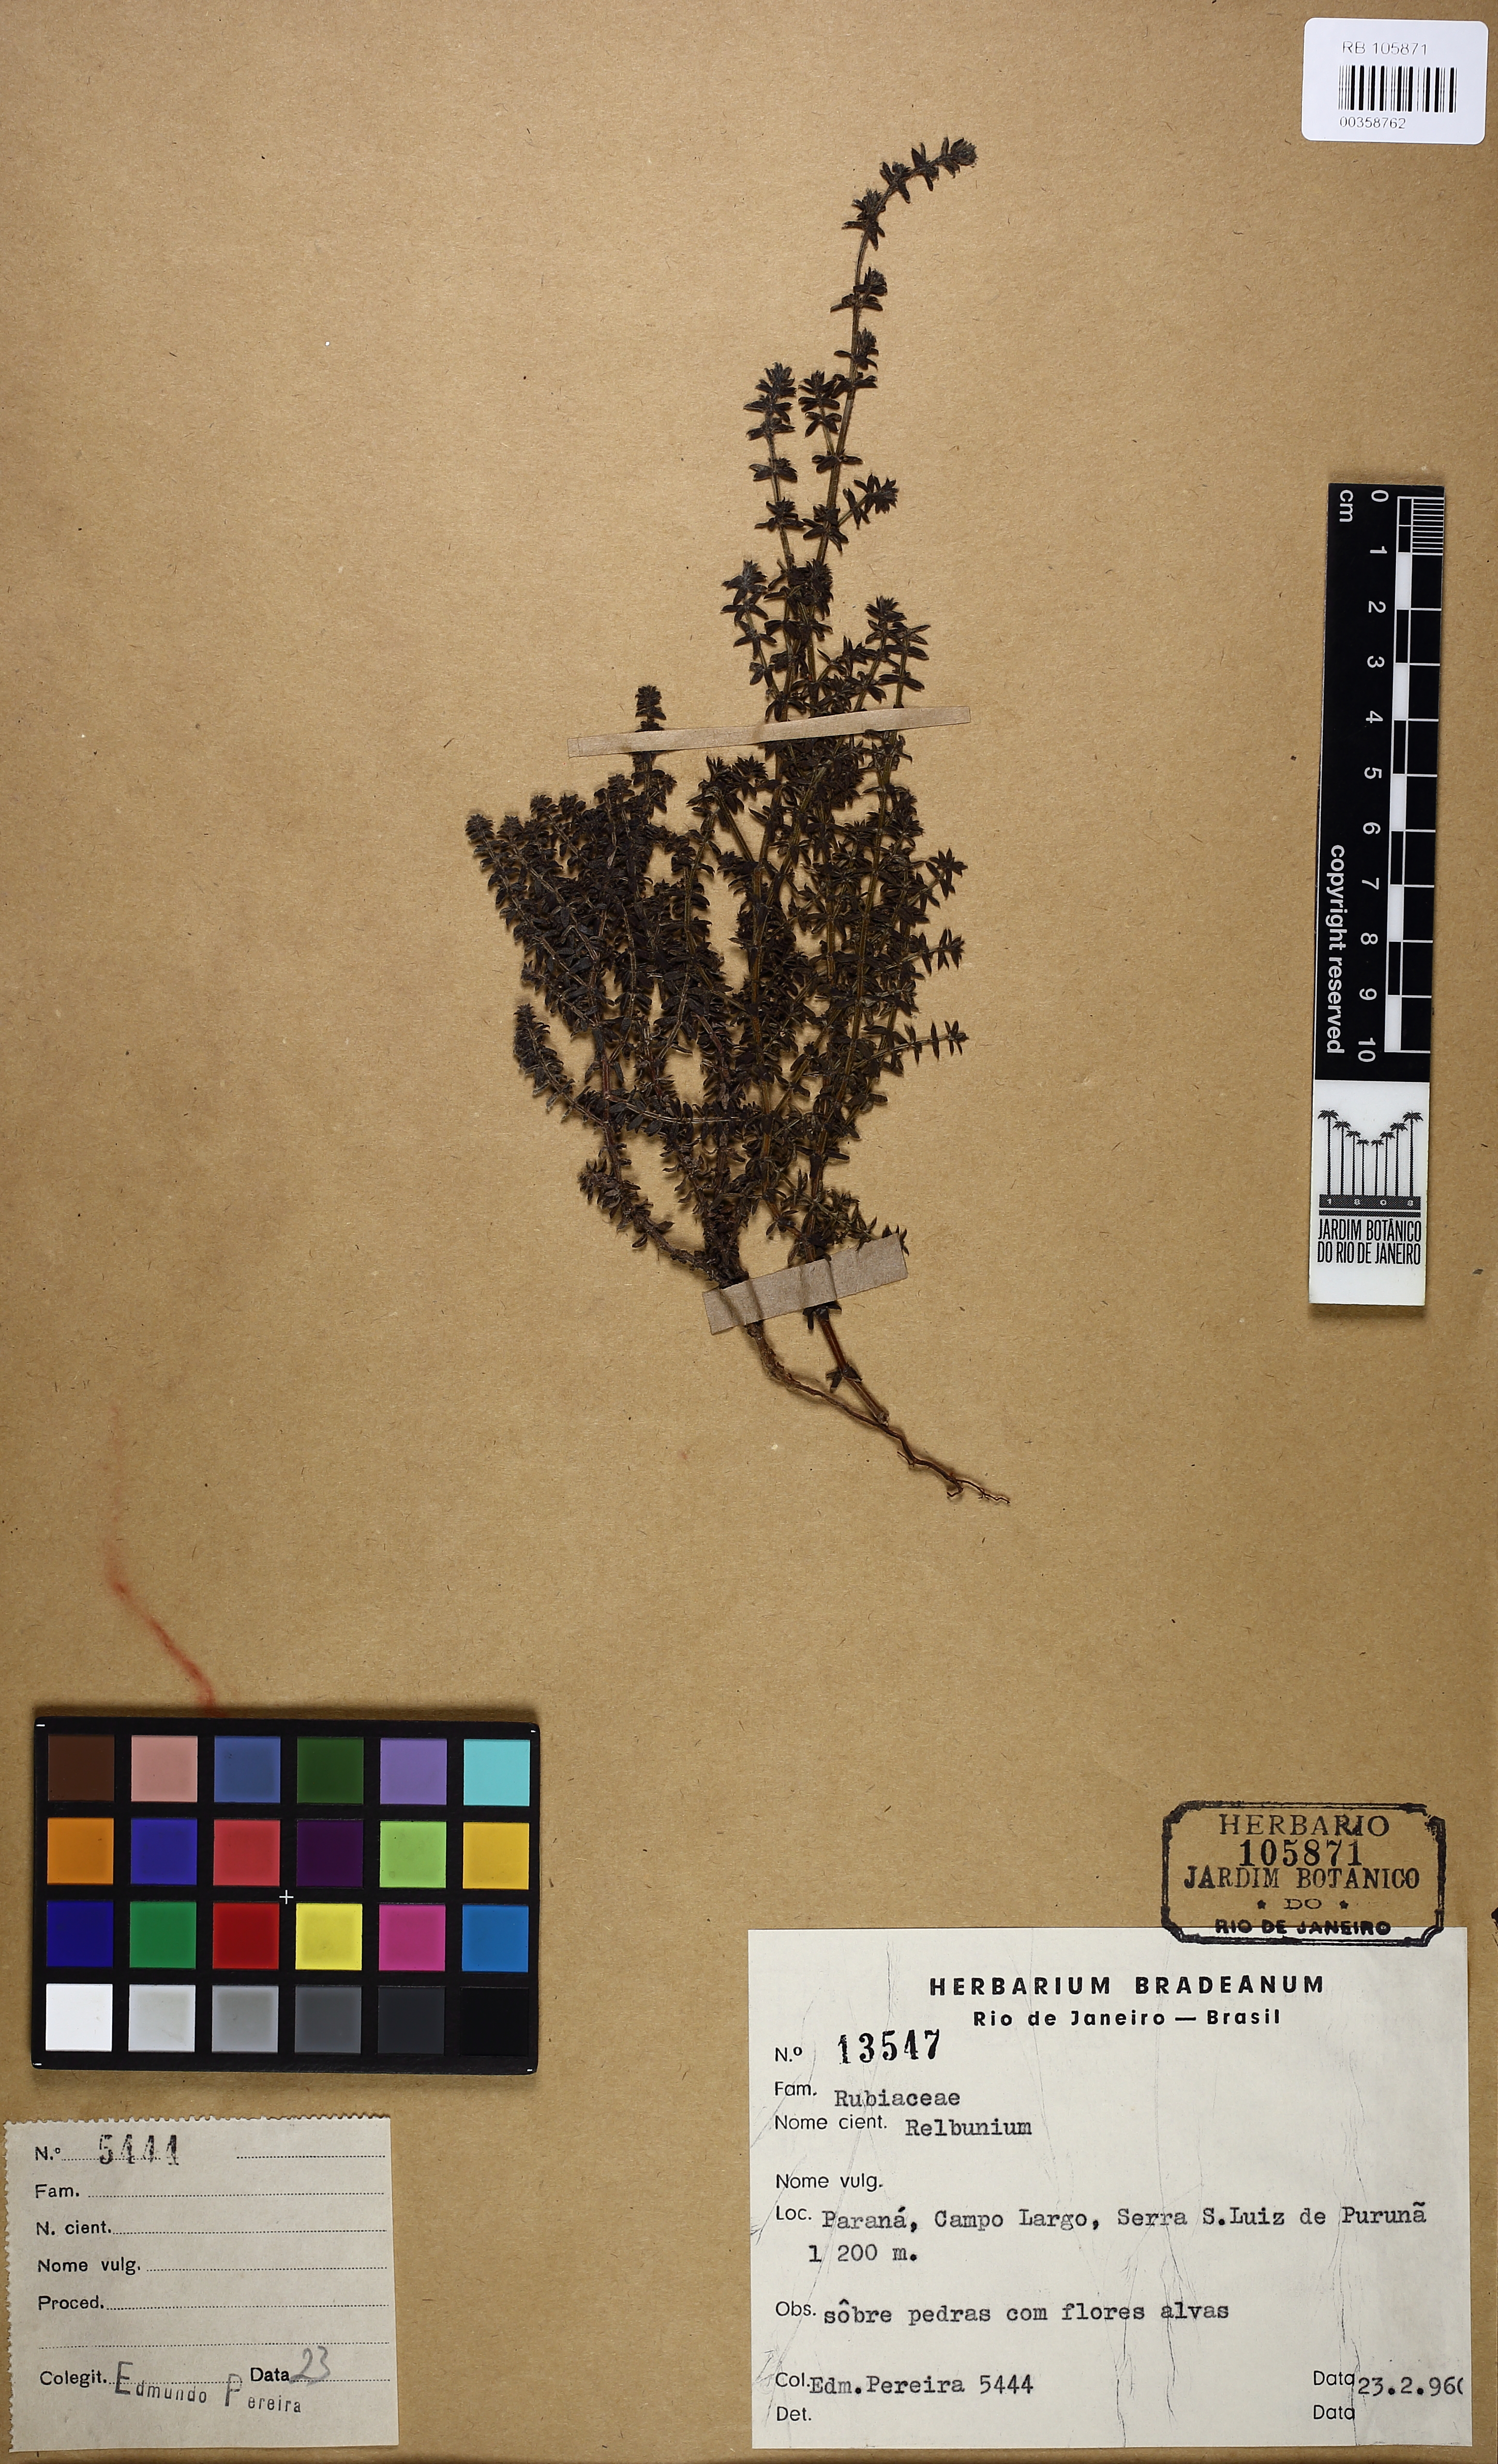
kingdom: Plantae
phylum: Tracheophyta
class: Magnoliopsida
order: Gentianales
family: Rubiaceae
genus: Galium
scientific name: Galium
